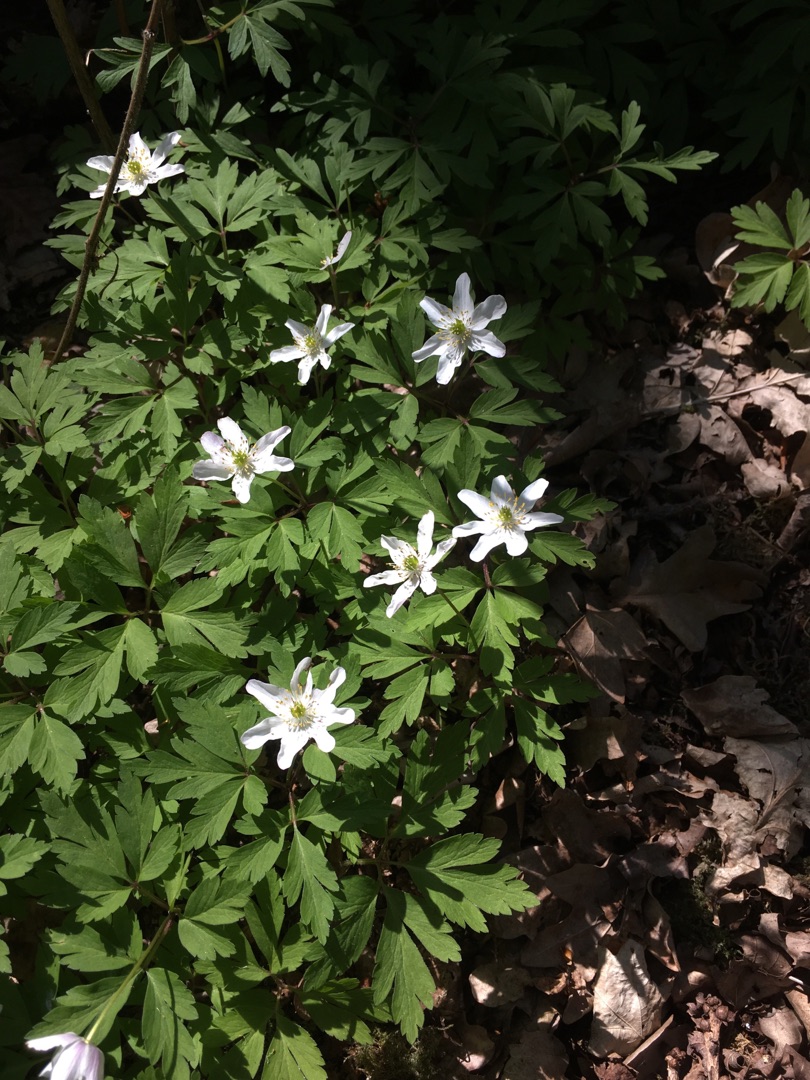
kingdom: Plantae
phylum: Tracheophyta
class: Magnoliopsida
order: Ranunculales
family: Ranunculaceae
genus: Anemone
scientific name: Anemone nemorosa
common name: Hvid anemone
